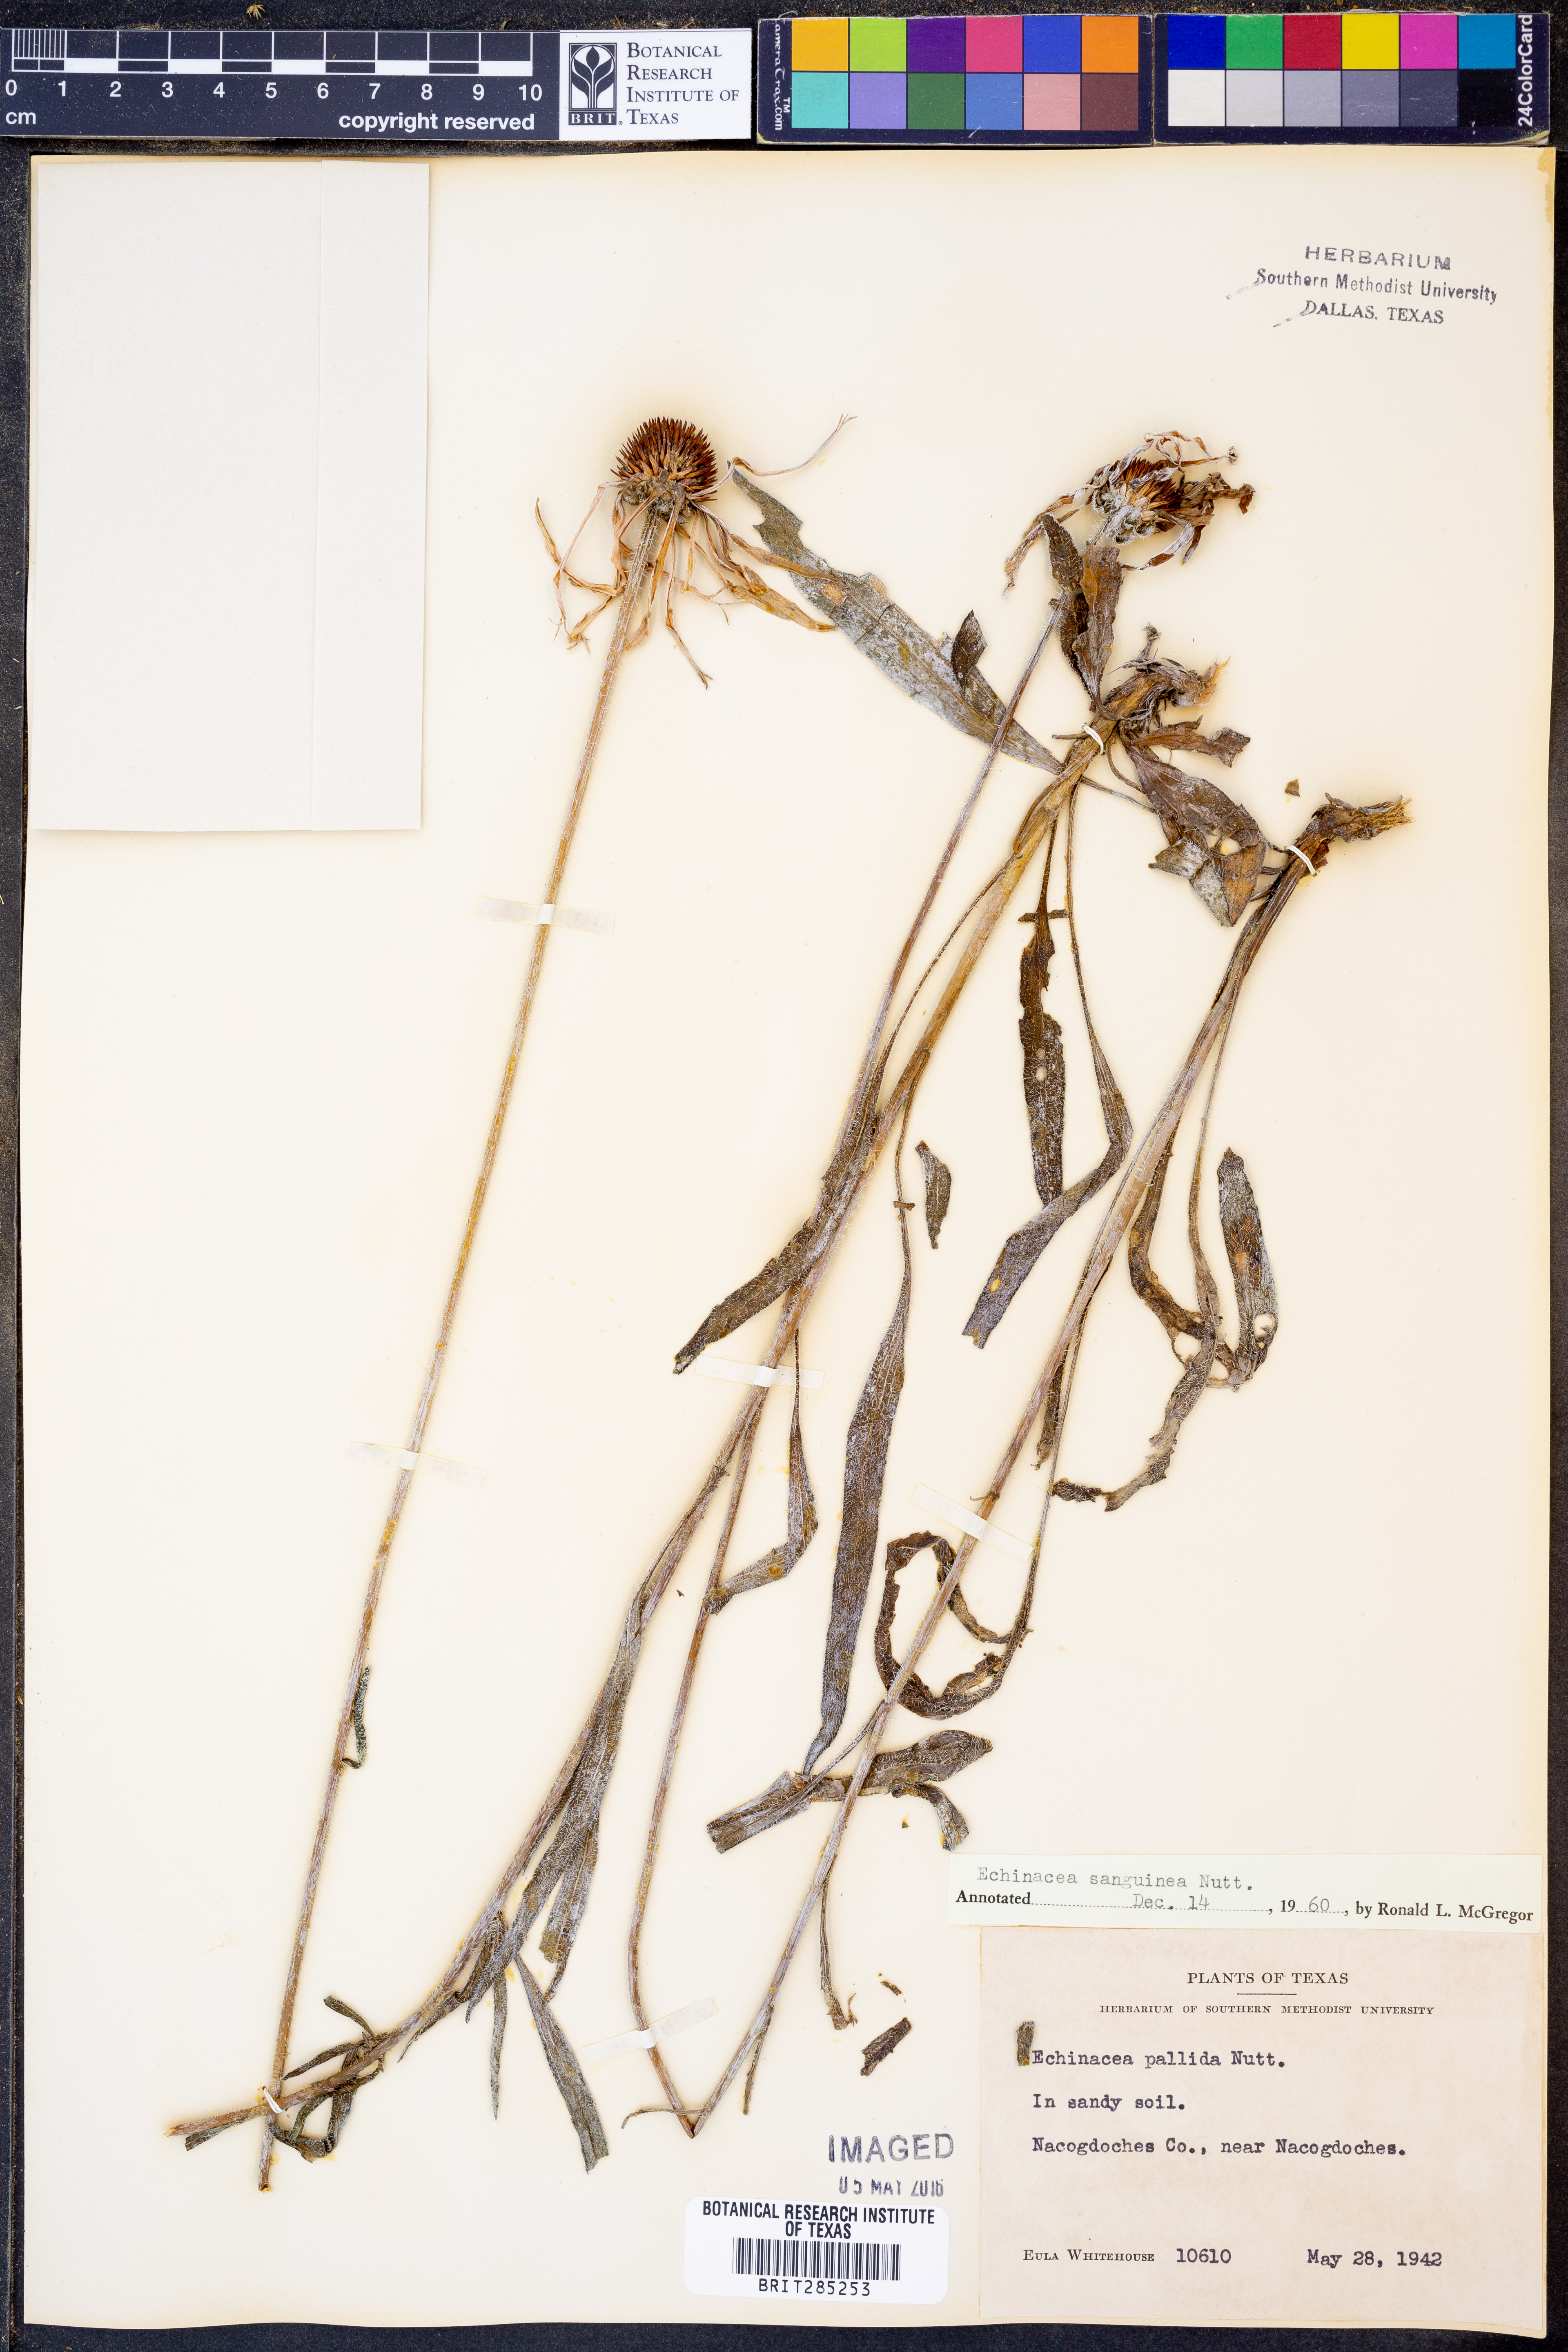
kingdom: Plantae
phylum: Tracheophyta
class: Magnoliopsida
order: Asterales
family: Asteraceae
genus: Echinacea
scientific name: Echinacea sanguinea
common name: Sanguine purple-coneflower
